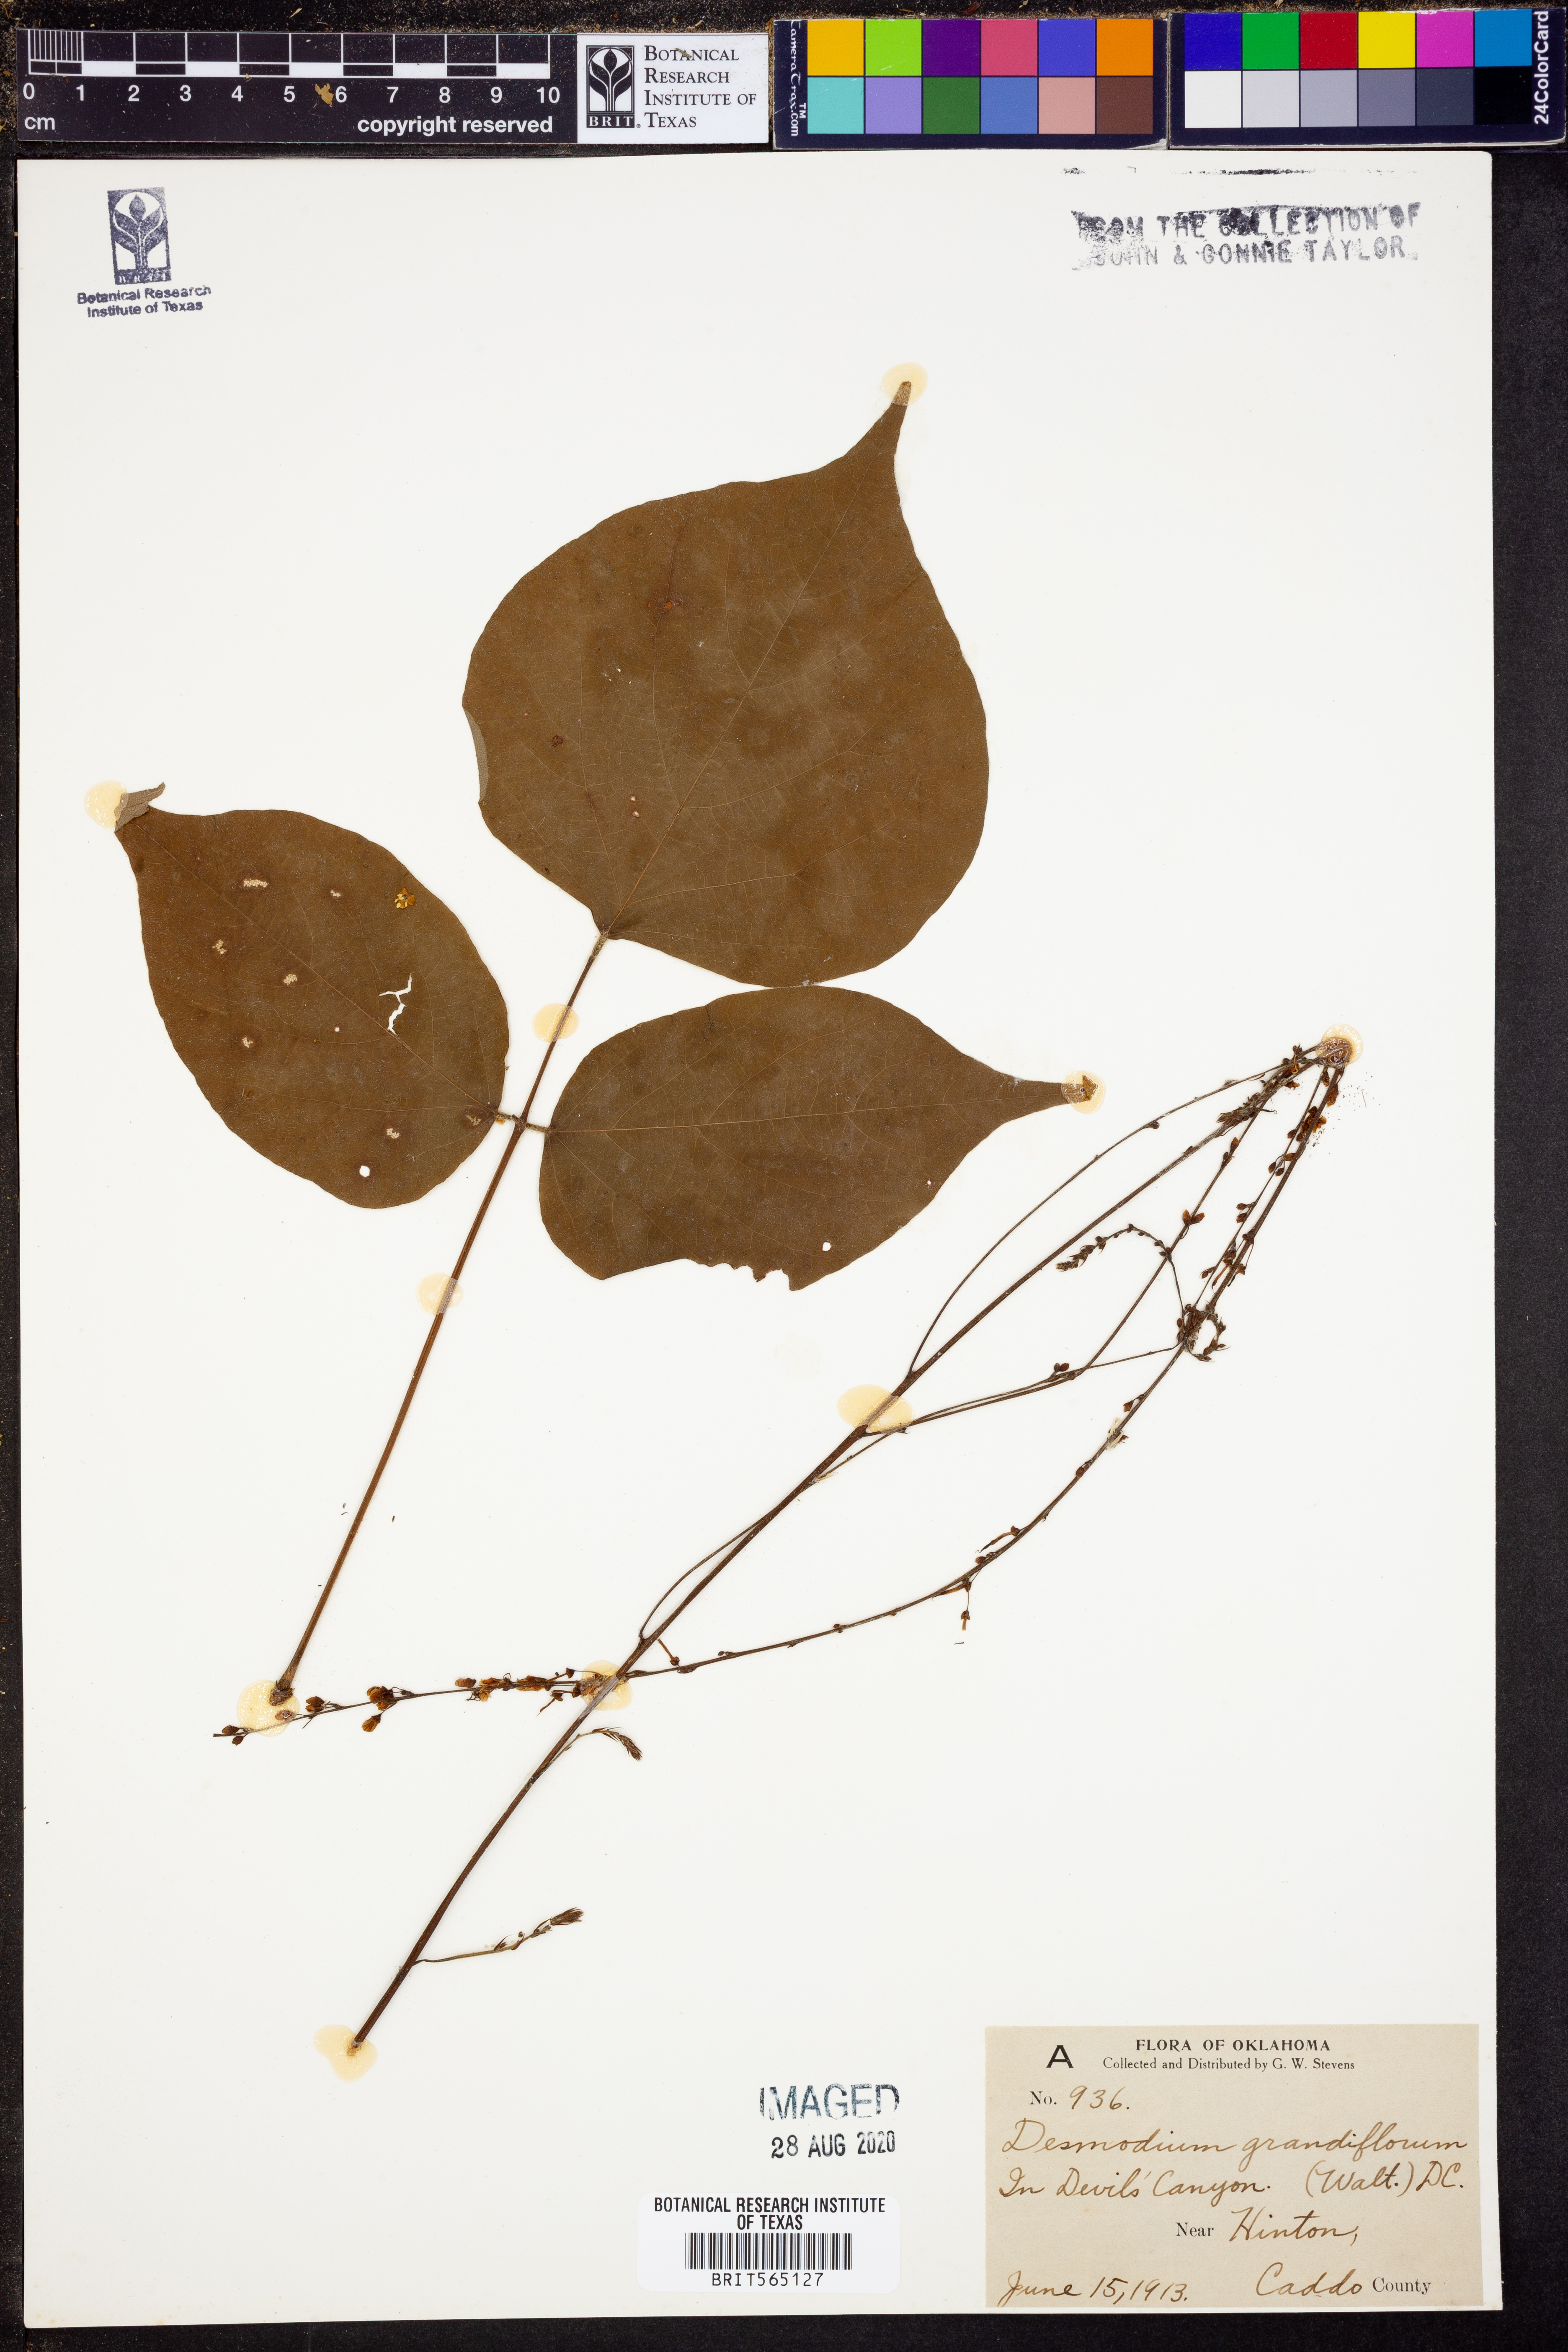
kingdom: Plantae
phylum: Tracheophyta
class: Magnoliopsida
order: Fabales
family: Fabaceae
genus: Hylodesmum
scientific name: Hylodesmum glutinosum
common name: Clustered-leaved tick-trefoil
